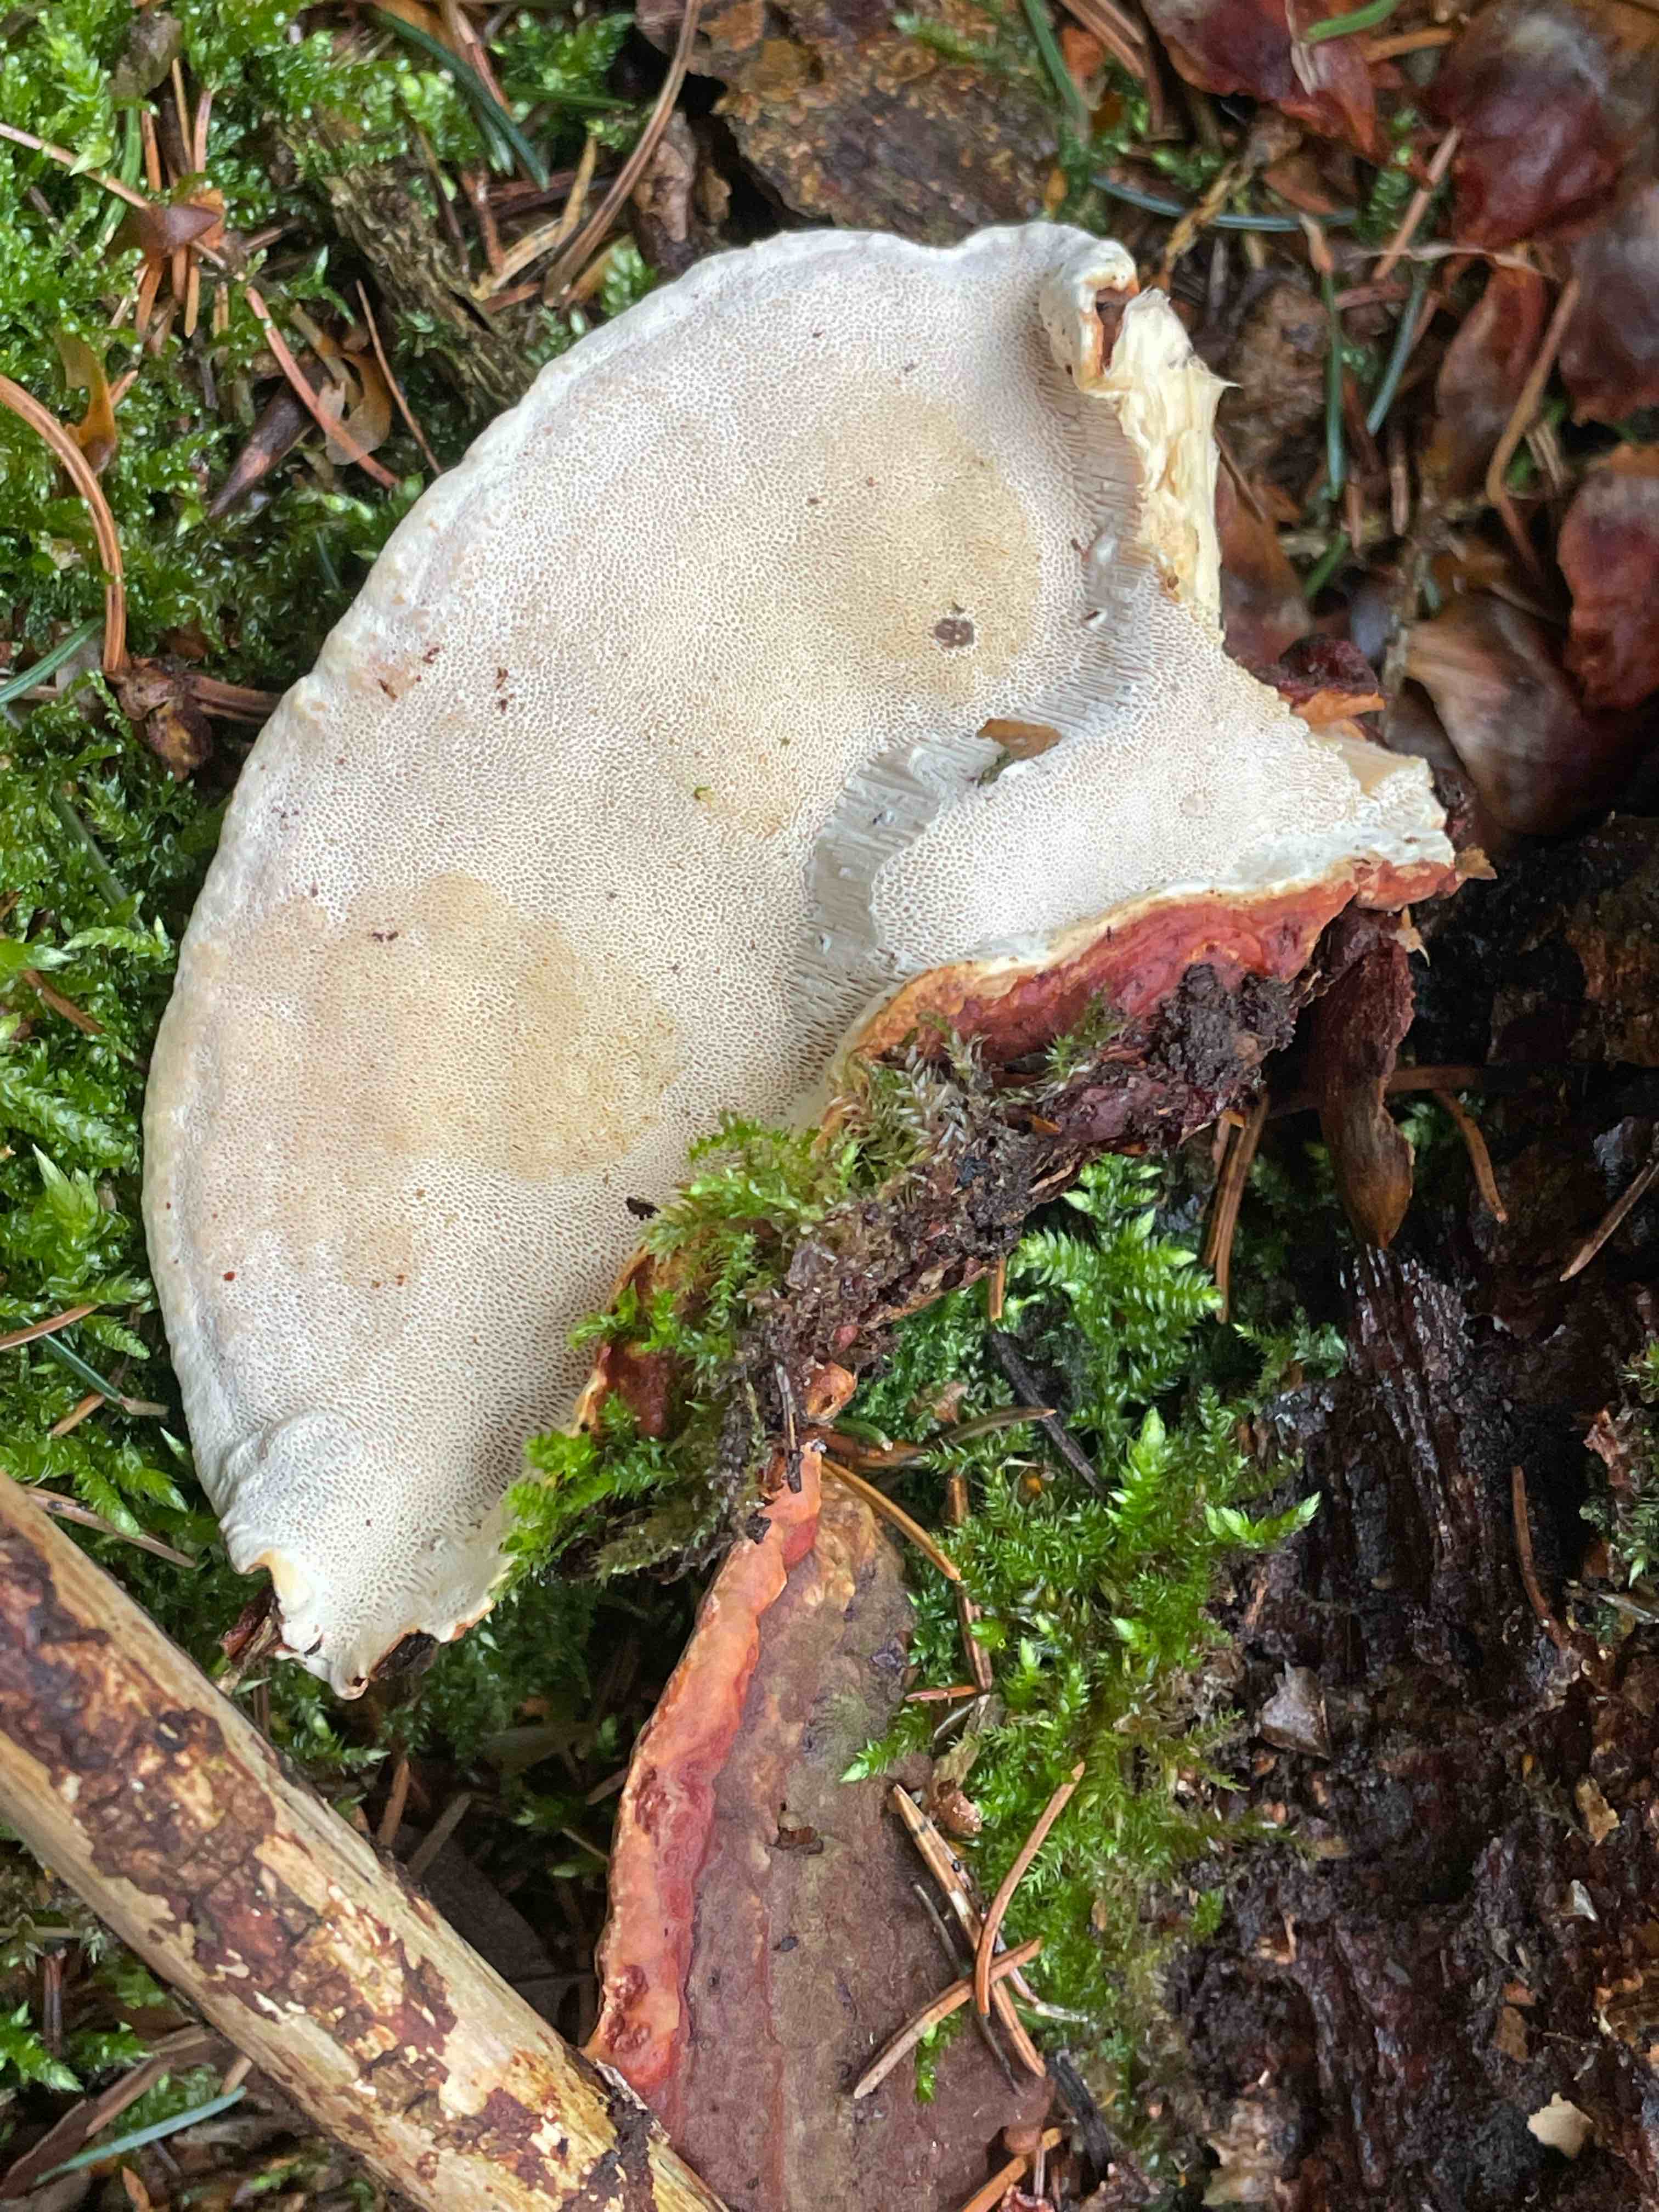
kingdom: Fungi
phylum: Basidiomycota
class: Agaricomycetes
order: Russulales
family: Bondarzewiaceae
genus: Heterobasidion
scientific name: Heterobasidion annosum
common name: almindelig rodfordærver
